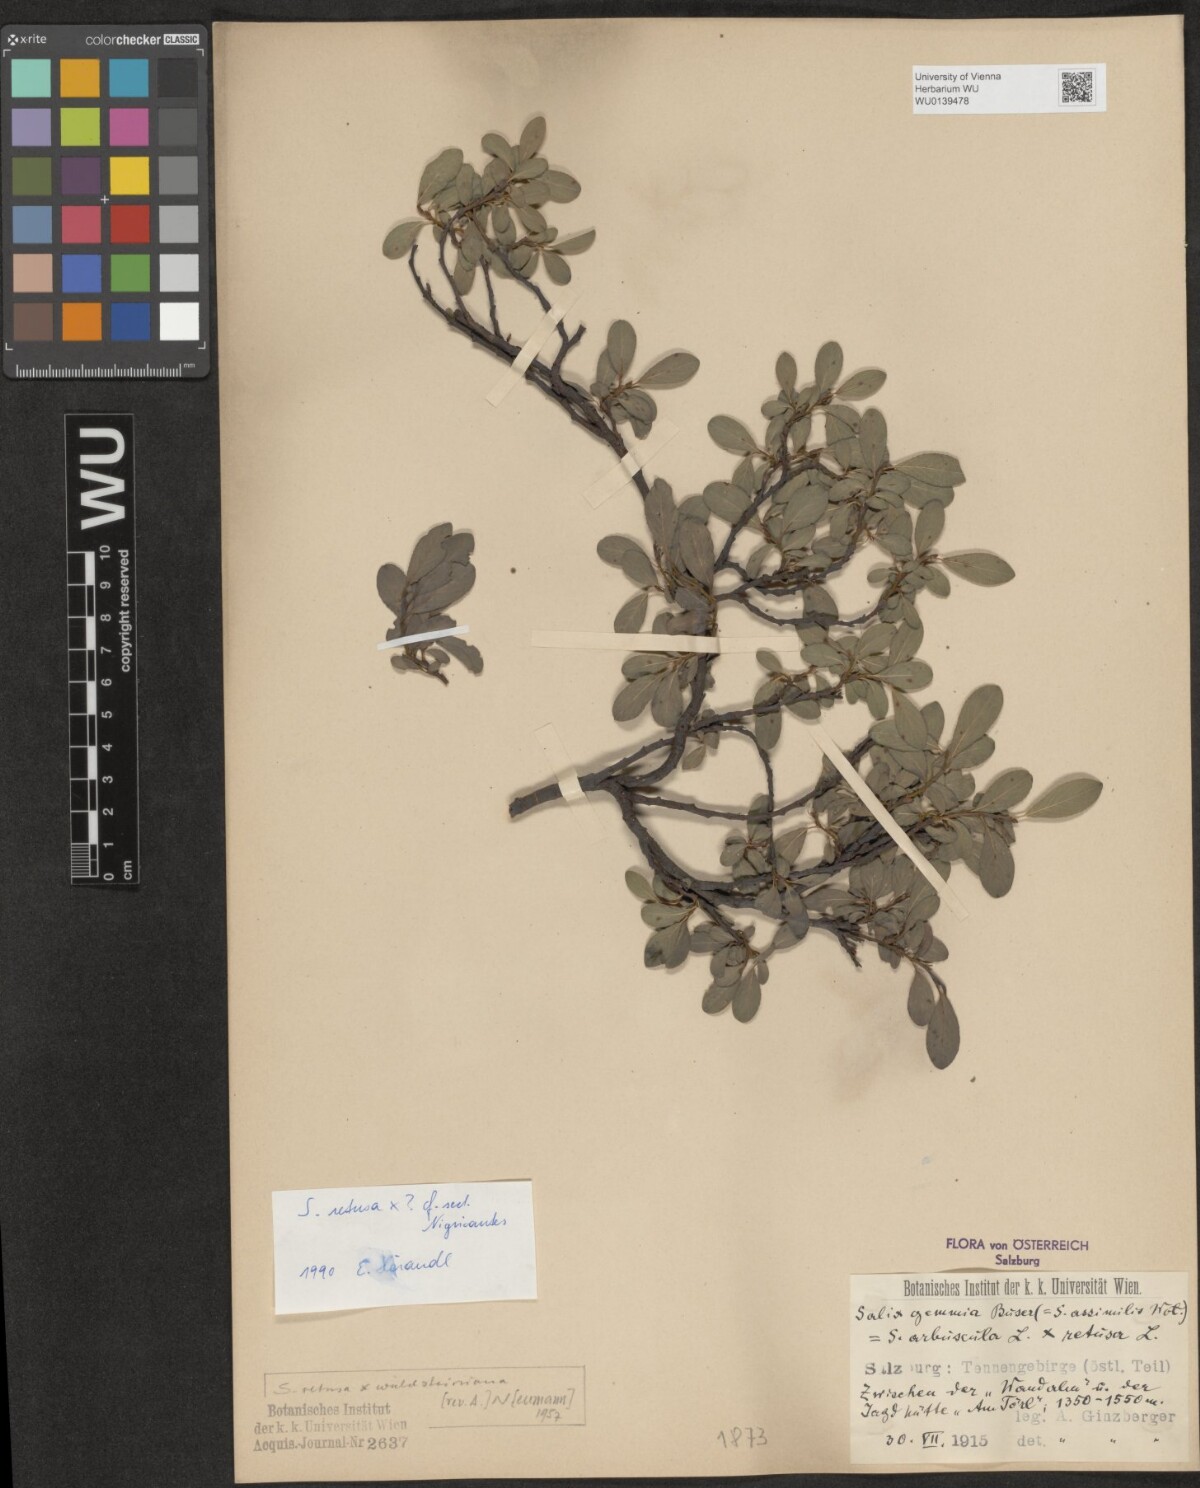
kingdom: Plantae
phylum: Tracheophyta
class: Magnoliopsida
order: Malpighiales
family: Salicaceae
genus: Salix
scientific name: Salix retusa
